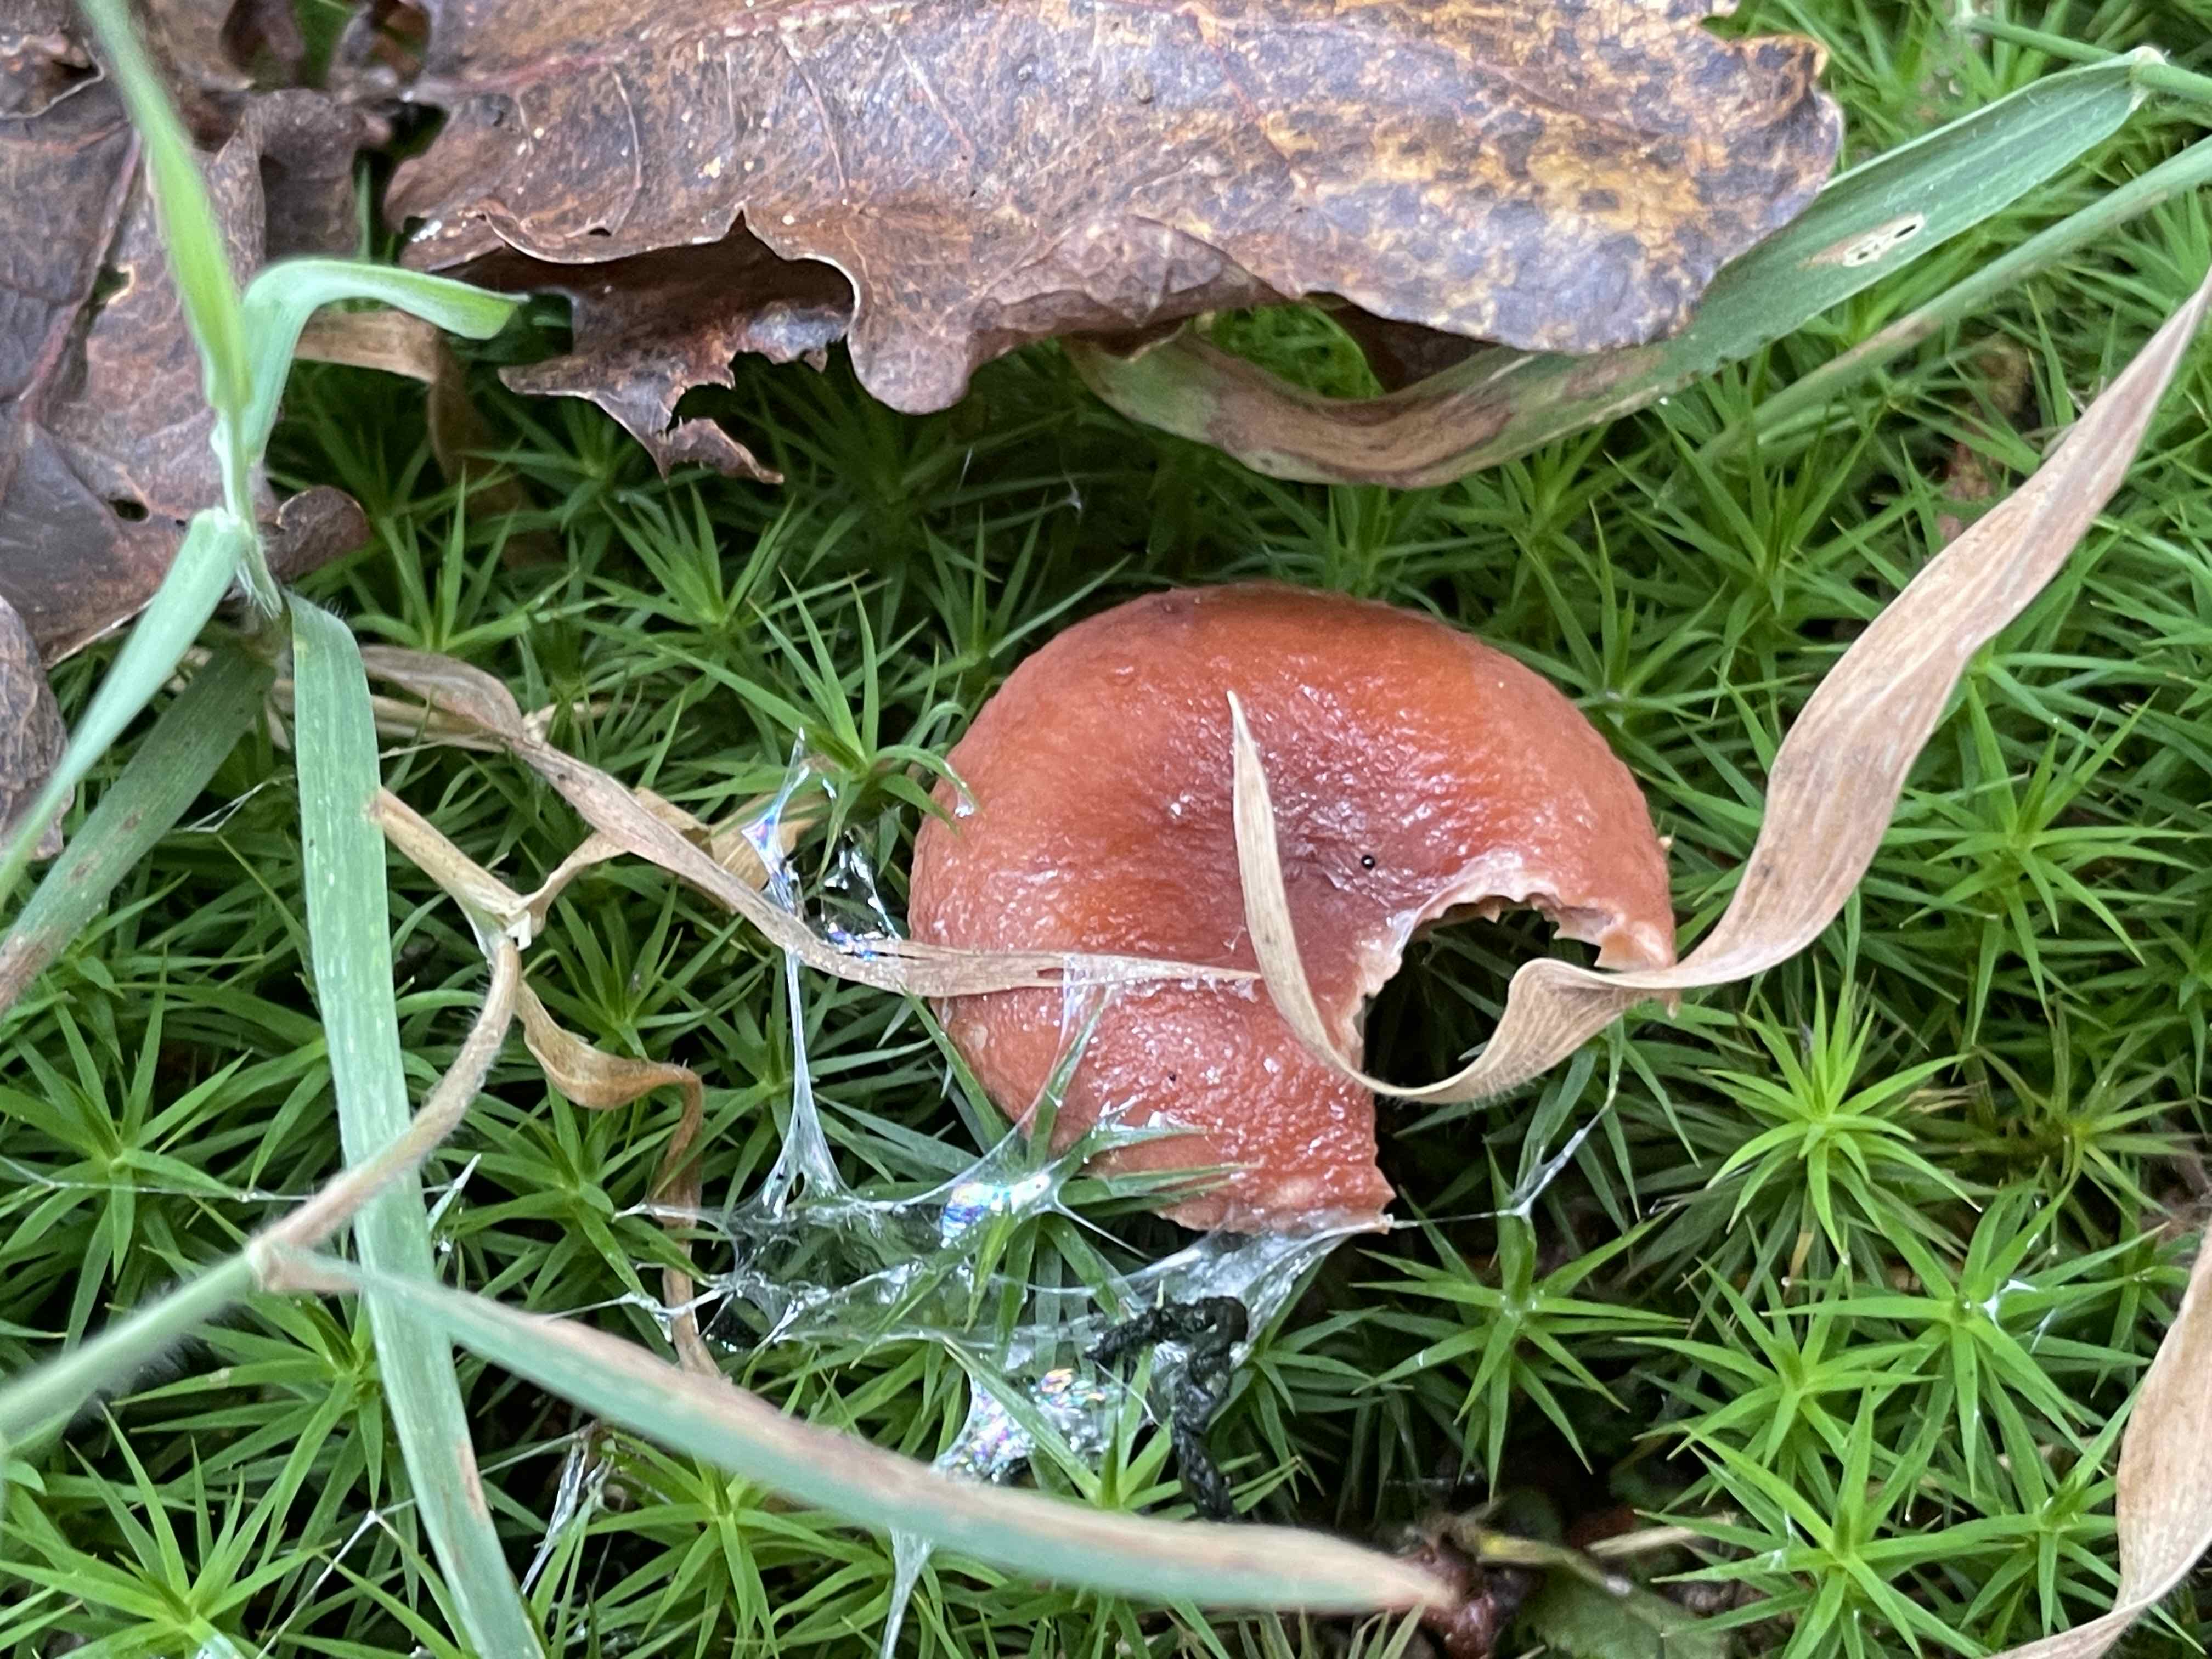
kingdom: Fungi
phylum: Basidiomycota
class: Agaricomycetes
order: Russulales
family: Russulaceae
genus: Lactarius
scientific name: Lactarius camphoratus
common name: kamfer-mælkehat
